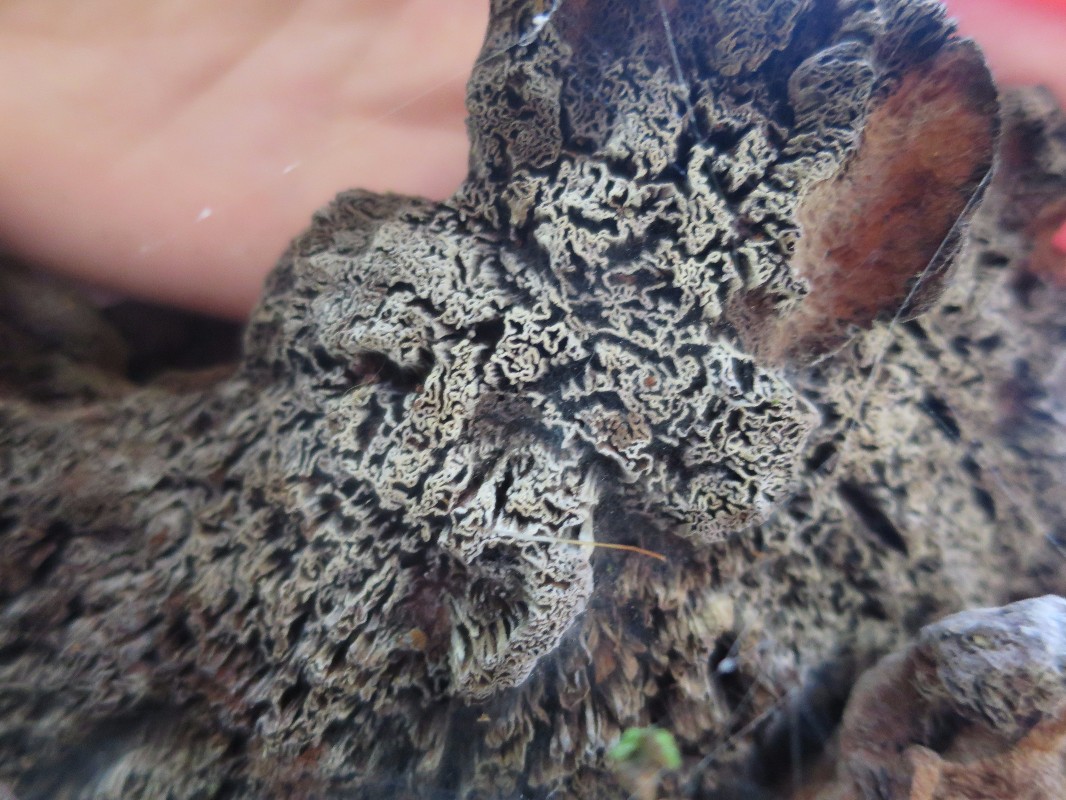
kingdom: Fungi
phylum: Basidiomycota
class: Agaricomycetes
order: Polyporales
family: Laetiporaceae
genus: Phaeolus
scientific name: Phaeolus schweinitzii
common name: brunporesvamp
